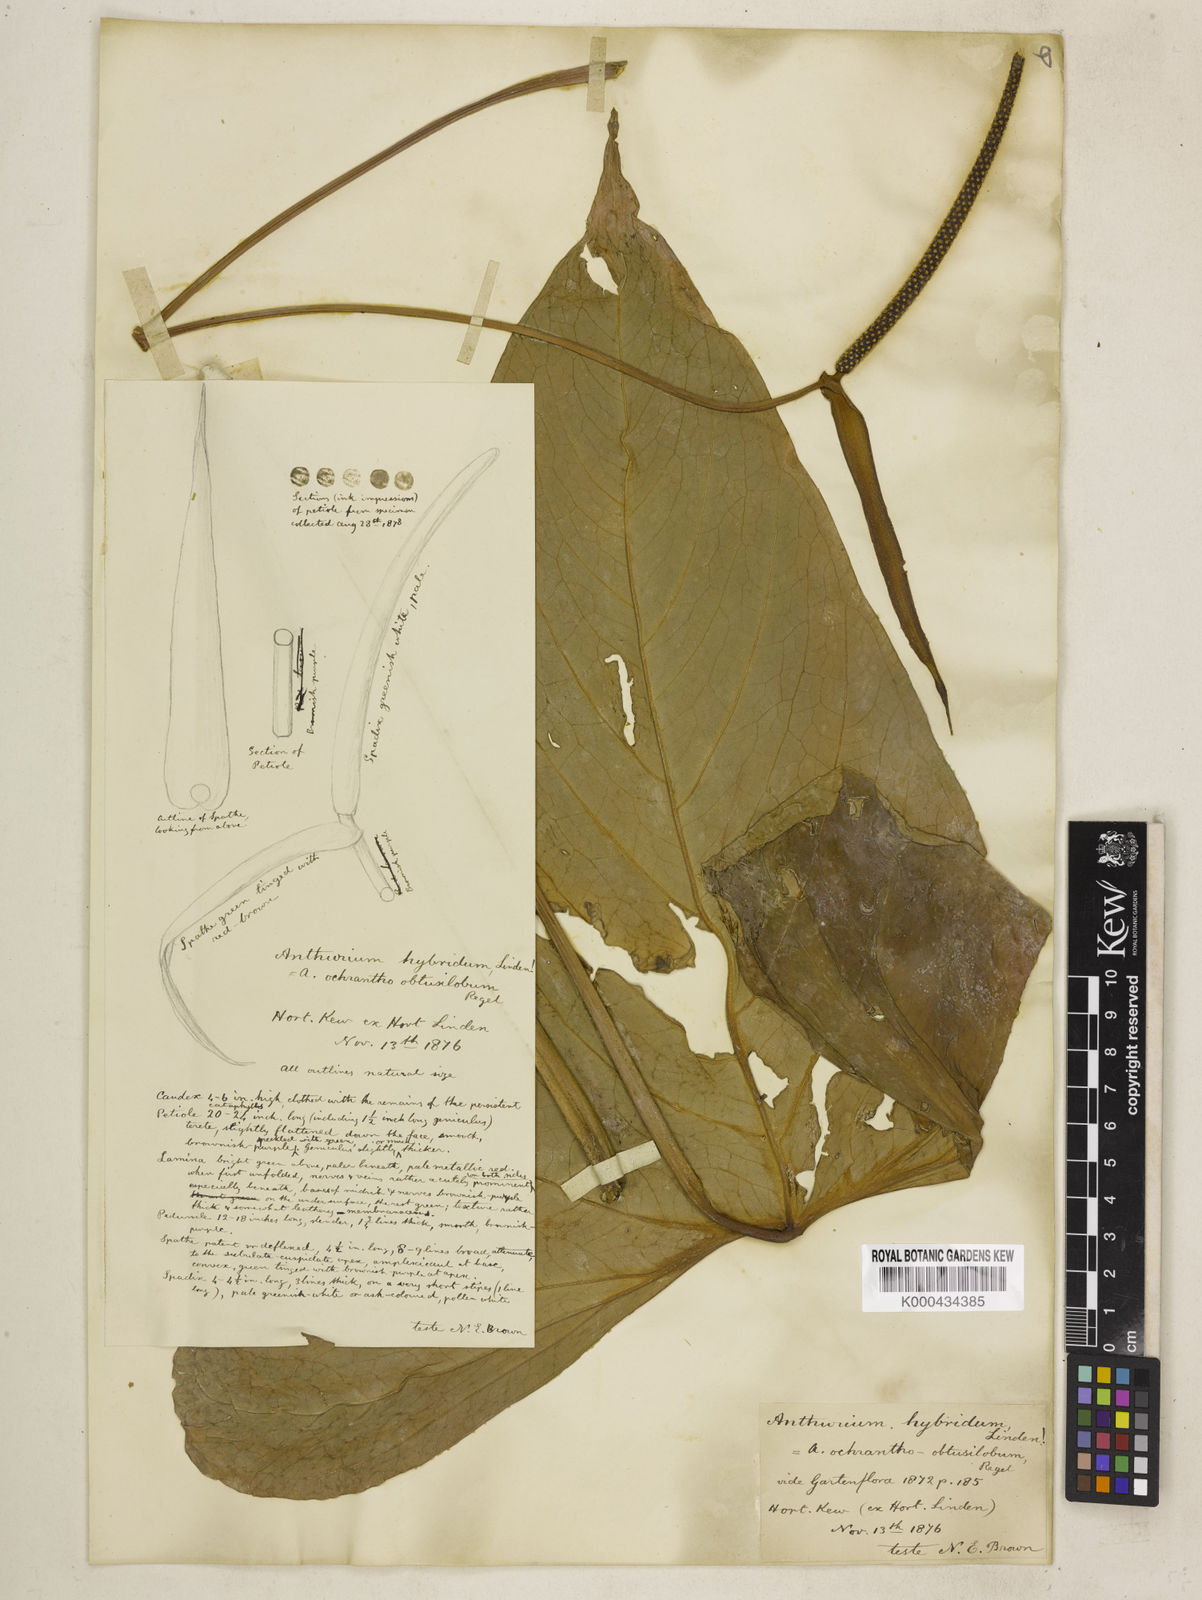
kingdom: Plantae
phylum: Tracheophyta
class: Liliopsida
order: Alismatales
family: Araceae
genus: Anthurium
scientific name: Anthurium ochranthum
